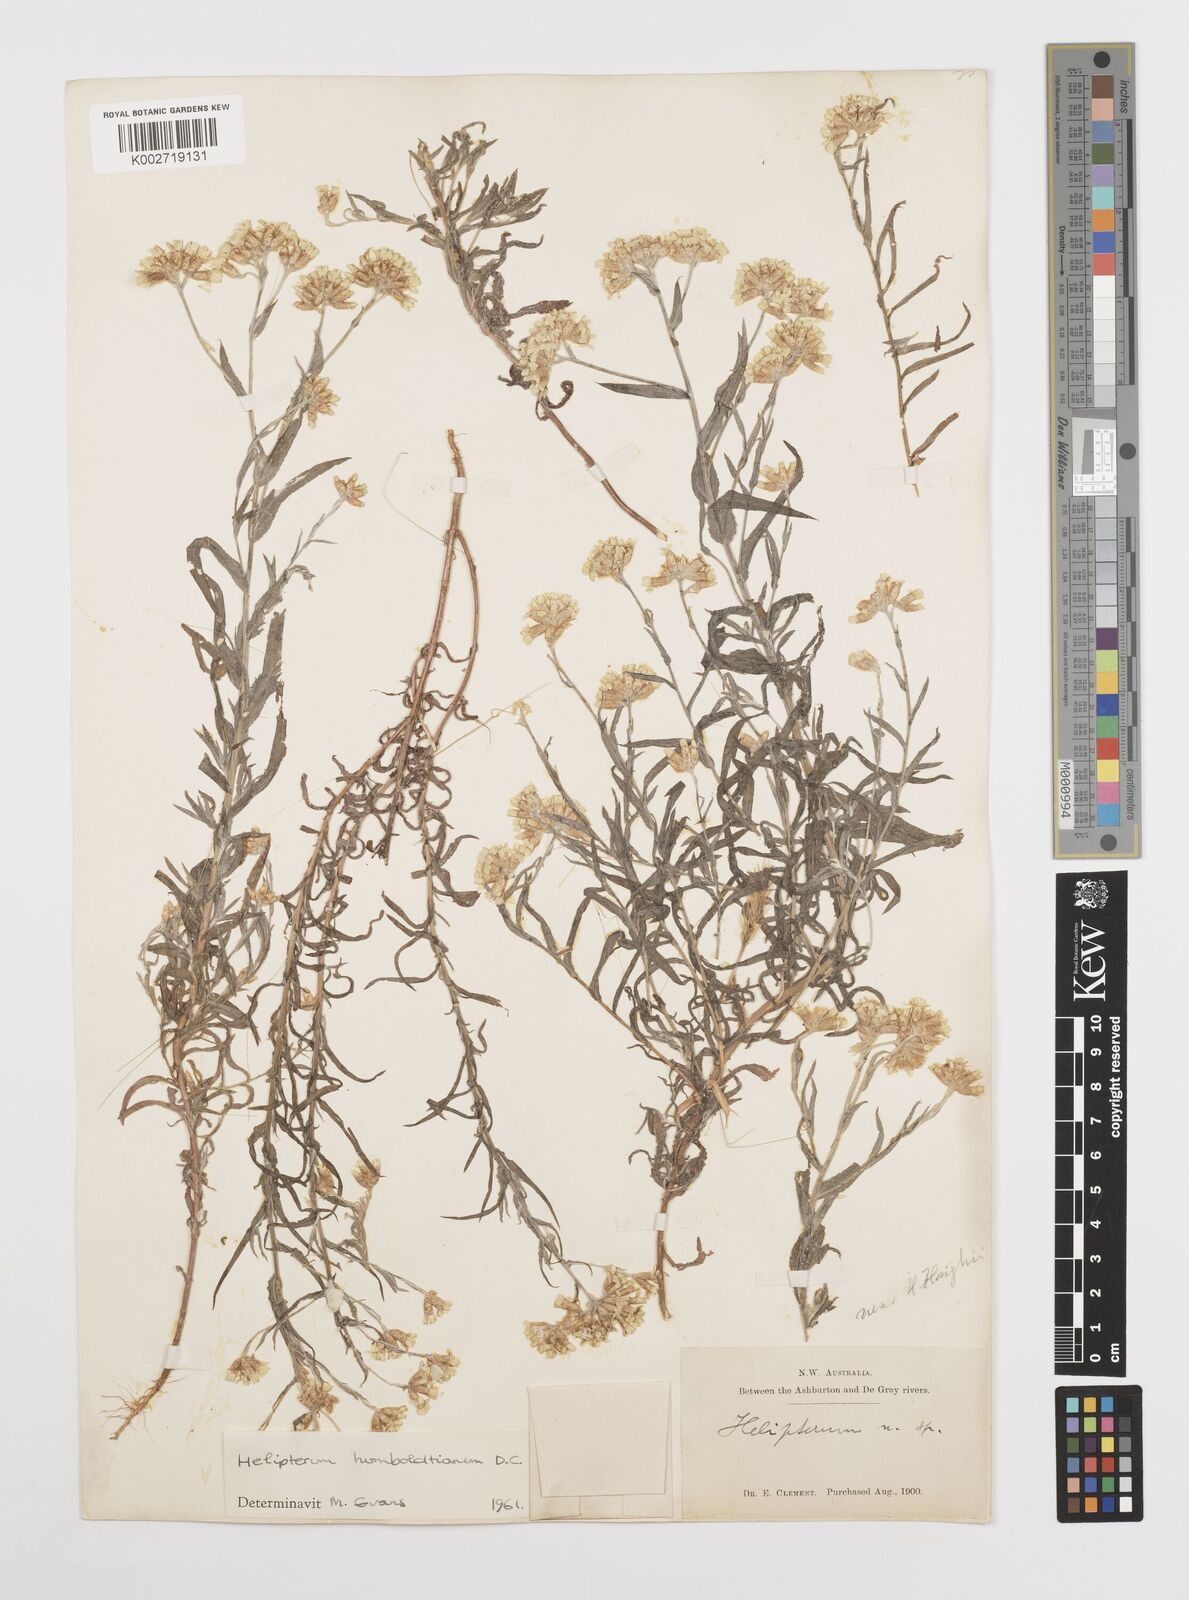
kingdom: Plantae
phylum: Tracheophyta
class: Magnoliopsida
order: Asterales
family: Asteraceae
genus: Rhodanthe
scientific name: Rhodanthe humboldtiana
